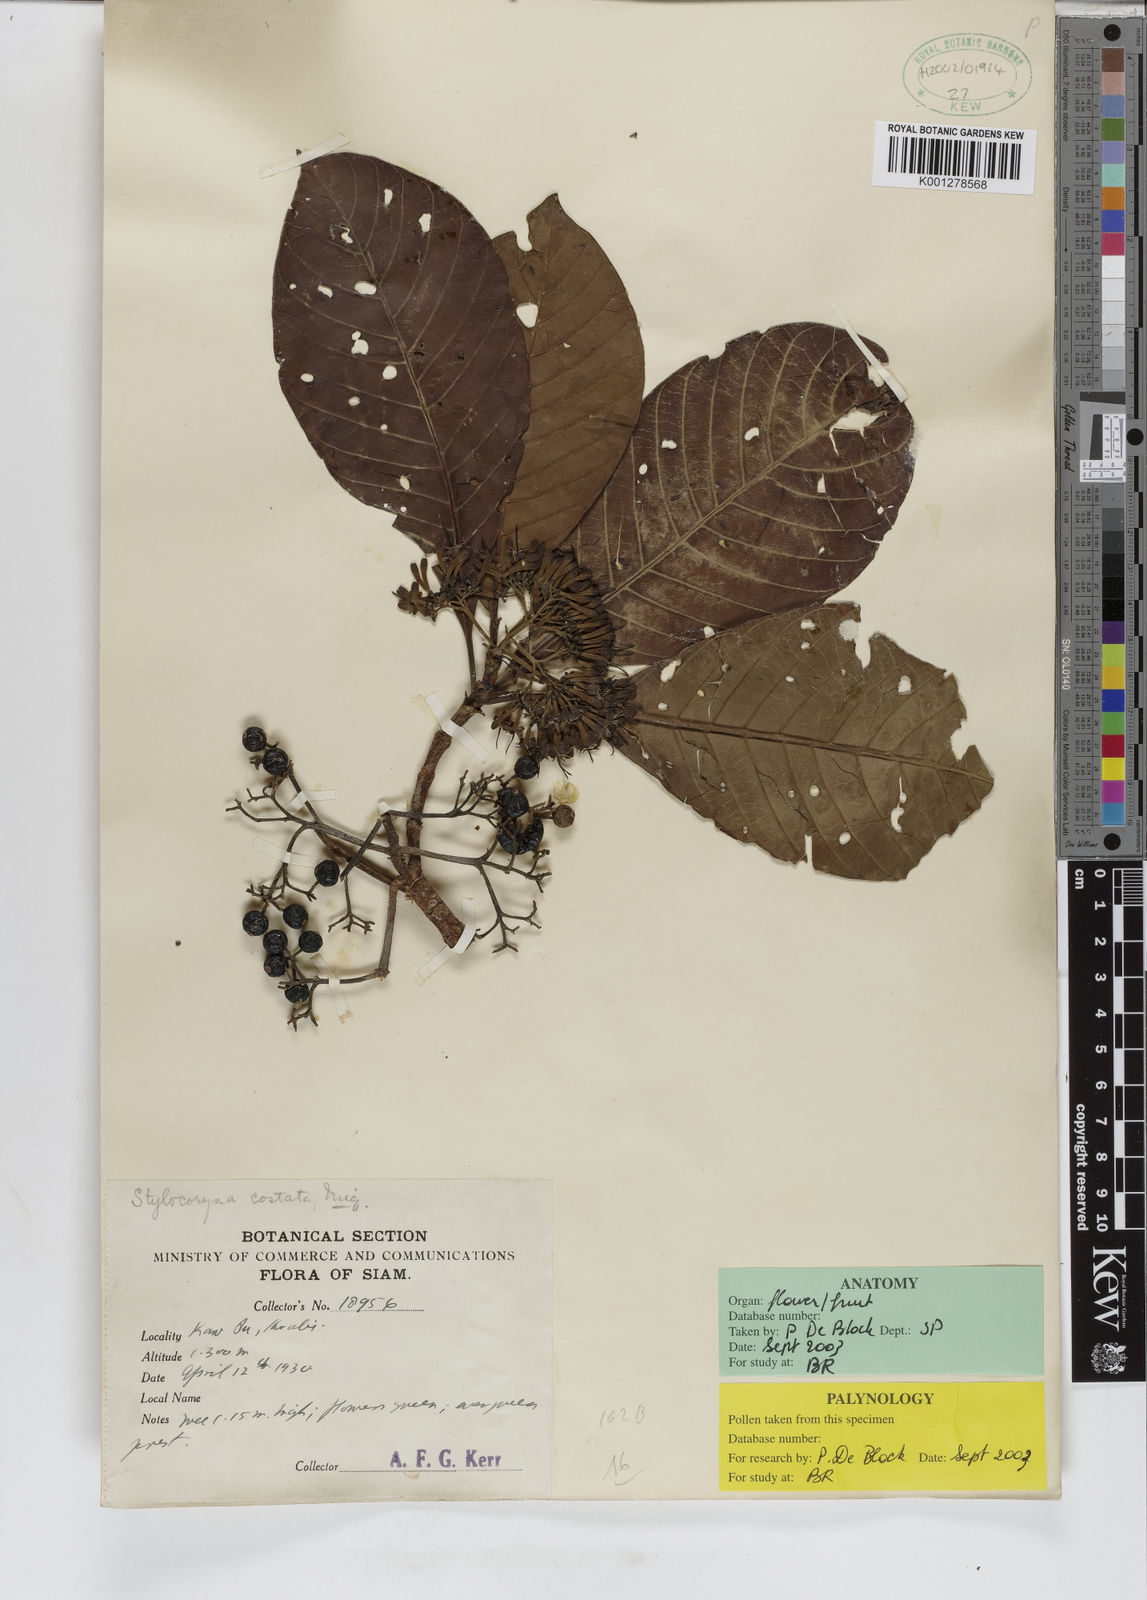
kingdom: Plantae
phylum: Tracheophyta
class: Magnoliopsida
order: Gentianales
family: Rubiaceae
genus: Tarenna
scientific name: Tarenna costata
